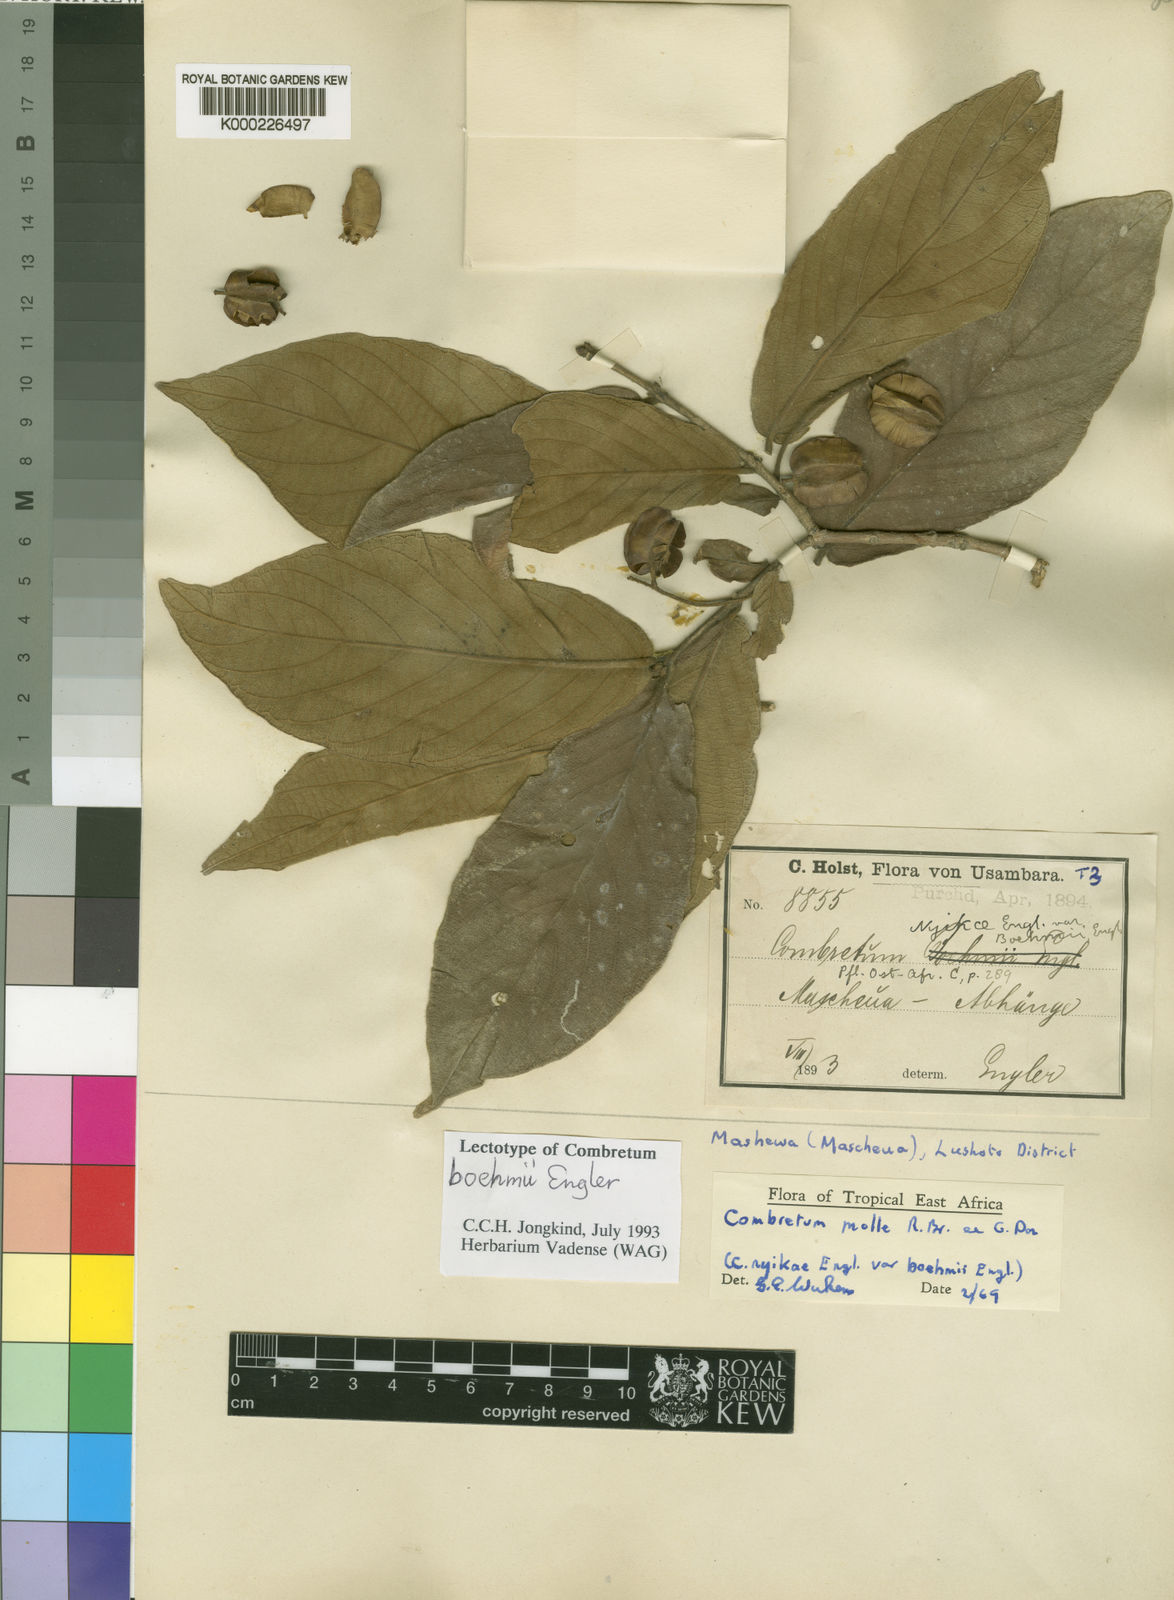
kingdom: Plantae
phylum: Tracheophyta
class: Magnoliopsida
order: Myrtales
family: Combretaceae
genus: Combretum
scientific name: Combretum molle
